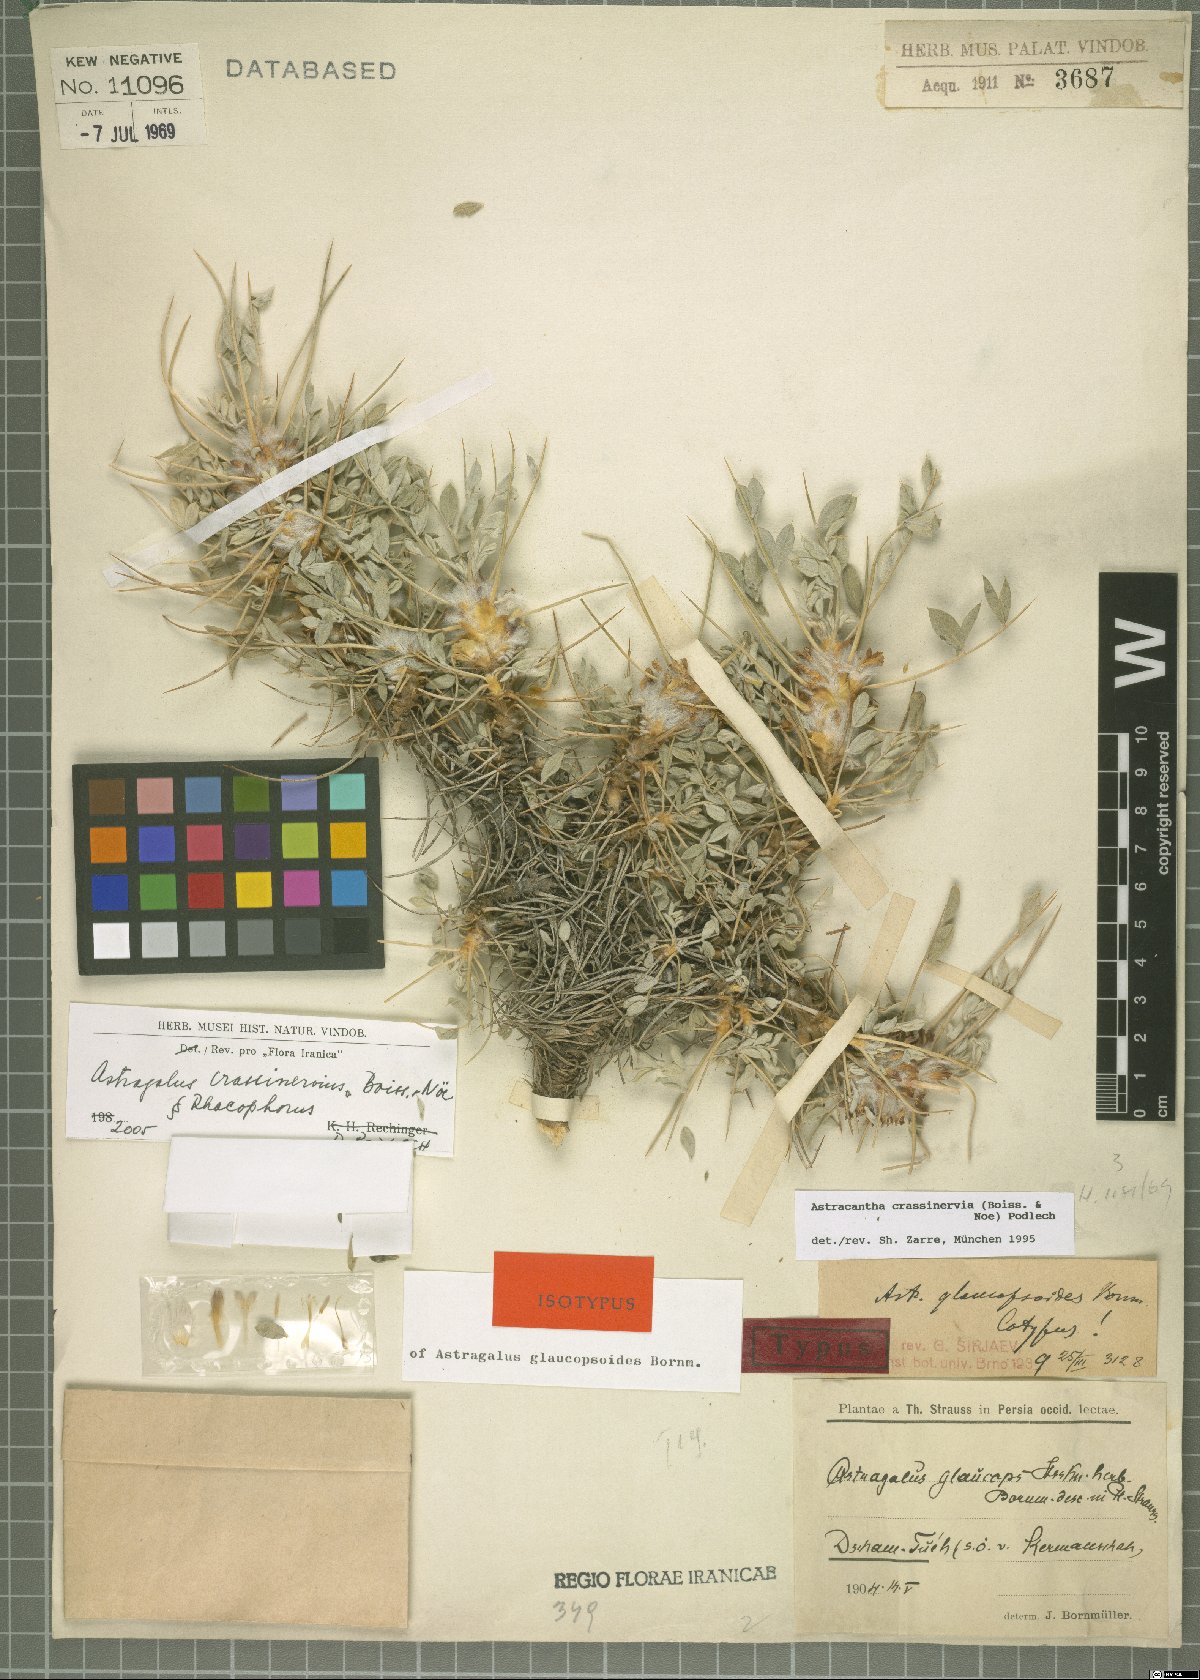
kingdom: Plantae
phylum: Tracheophyta
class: Magnoliopsida
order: Fabales
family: Fabaceae
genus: Astragalus
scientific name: Astragalus crassinervius
